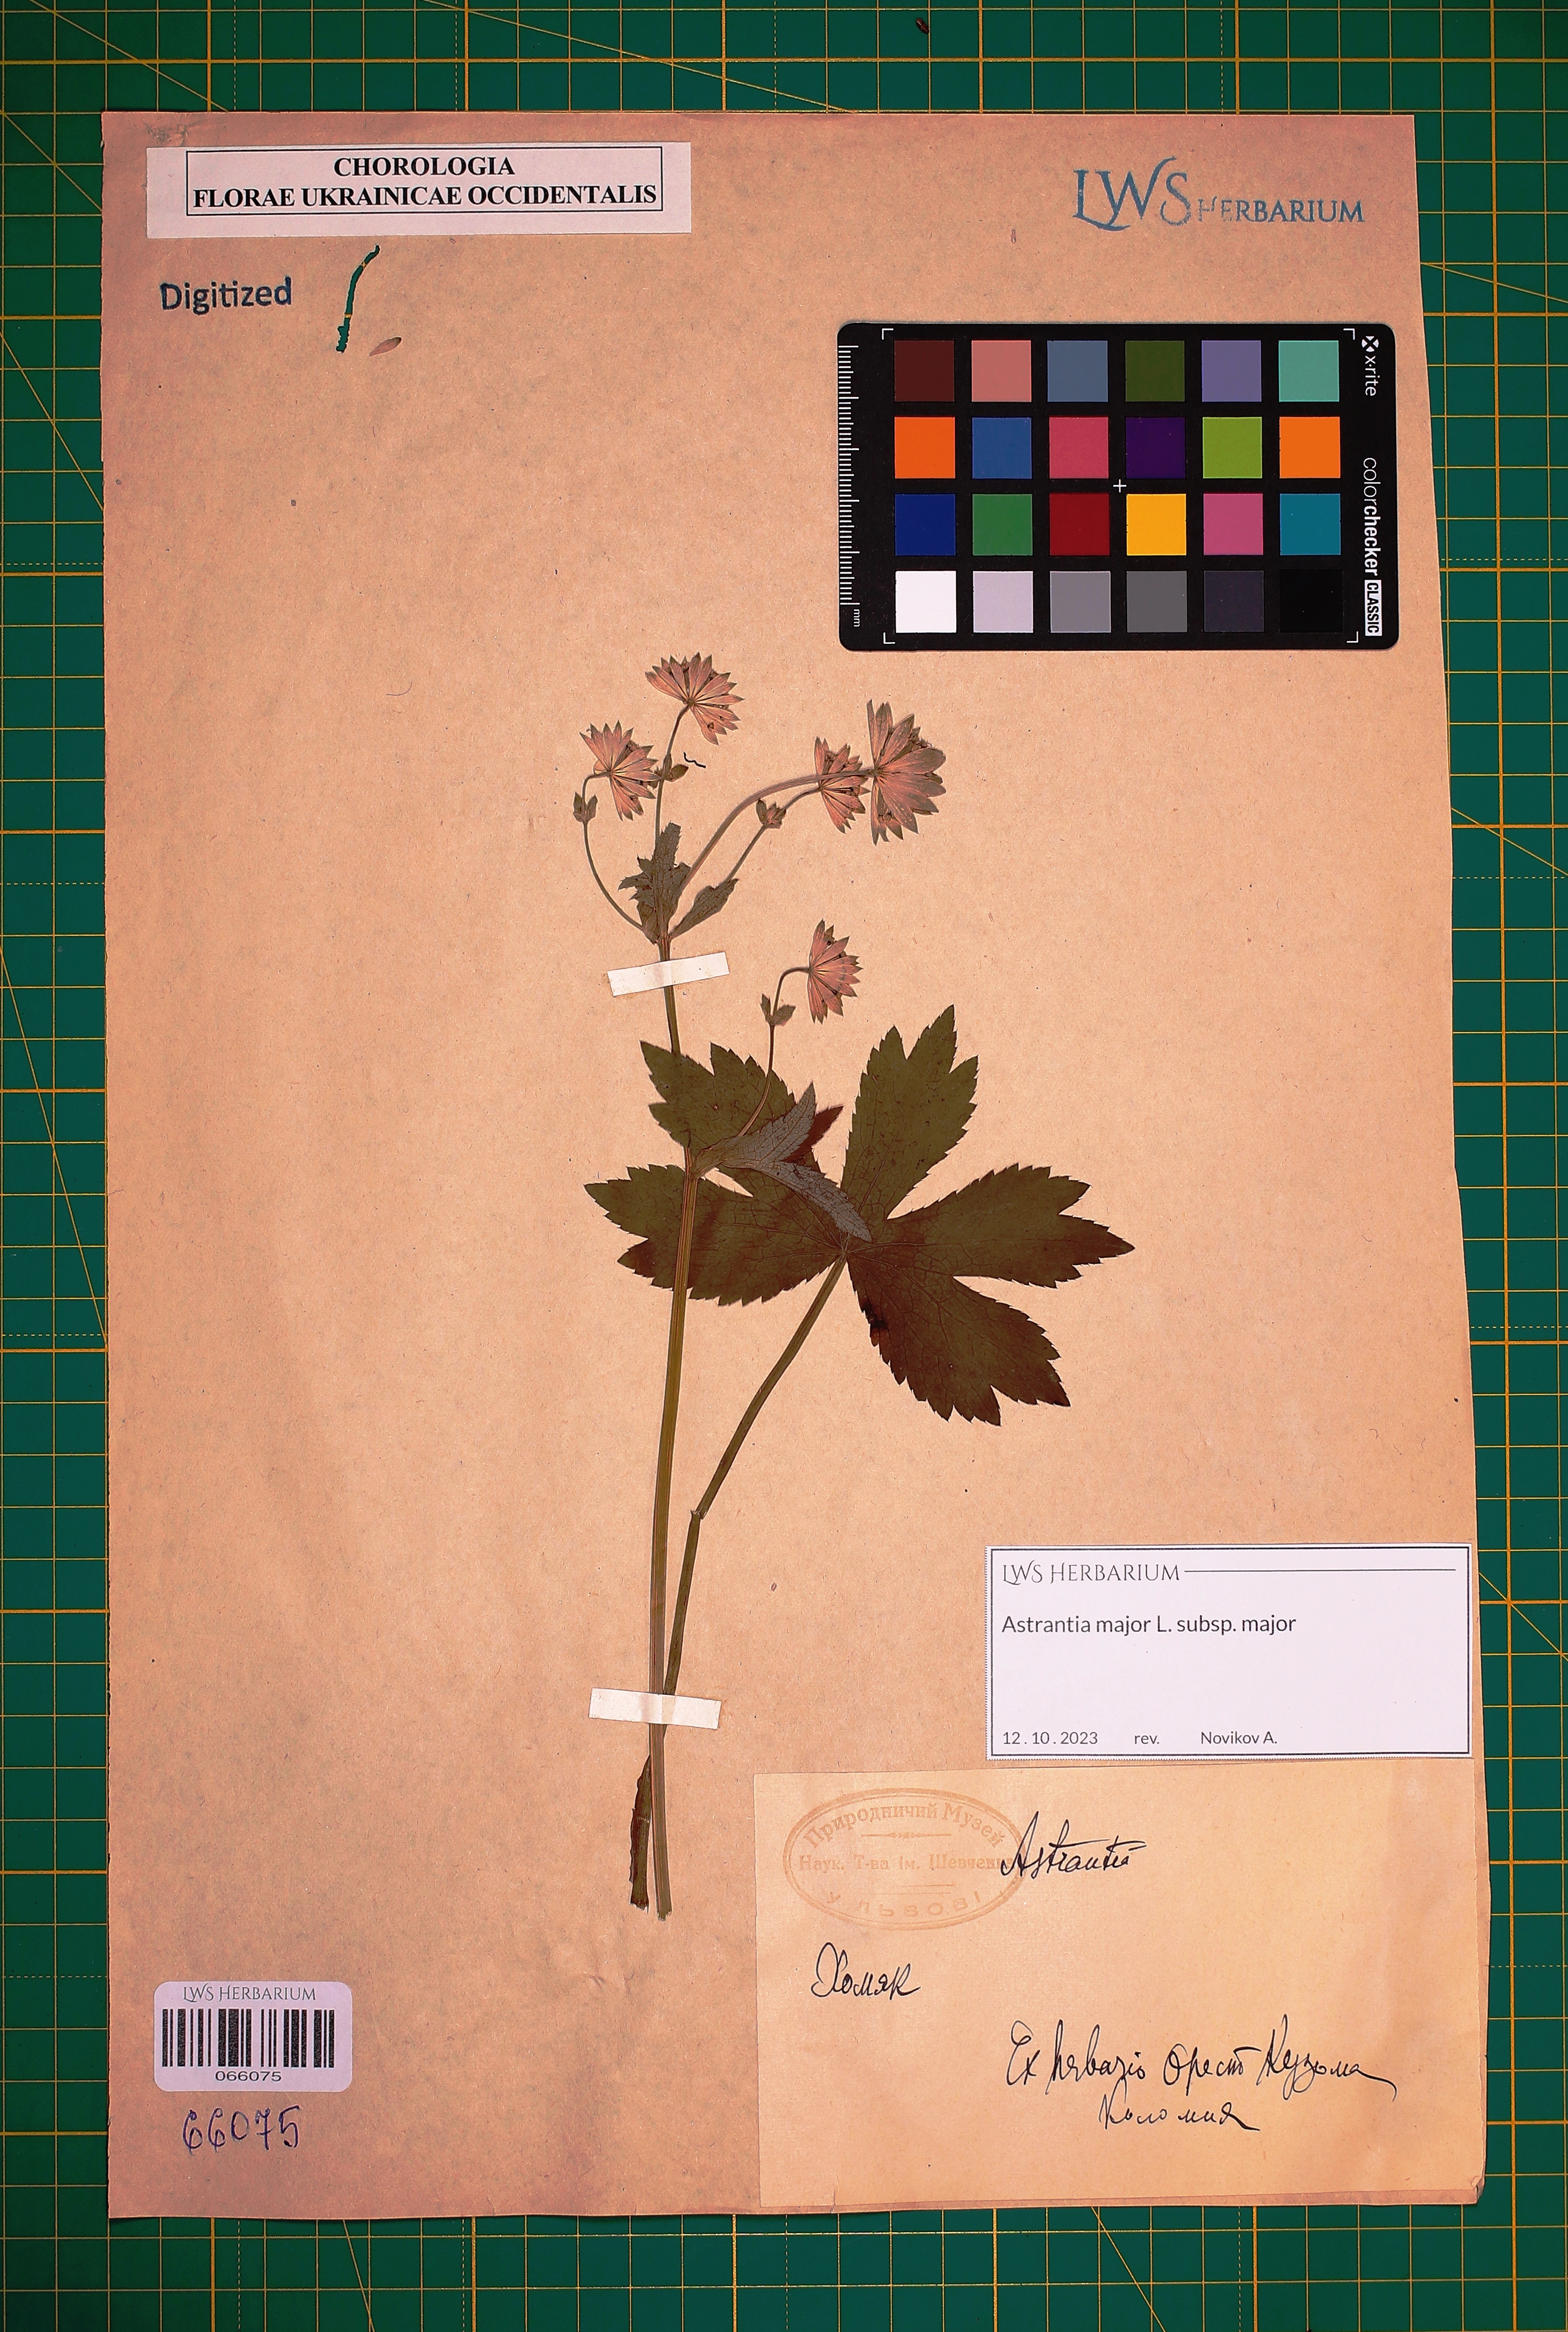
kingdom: Plantae
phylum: Tracheophyta
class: Magnoliopsida
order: Apiales
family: Apiaceae
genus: Astrantia
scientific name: Astrantia major
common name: Greater masterwort
